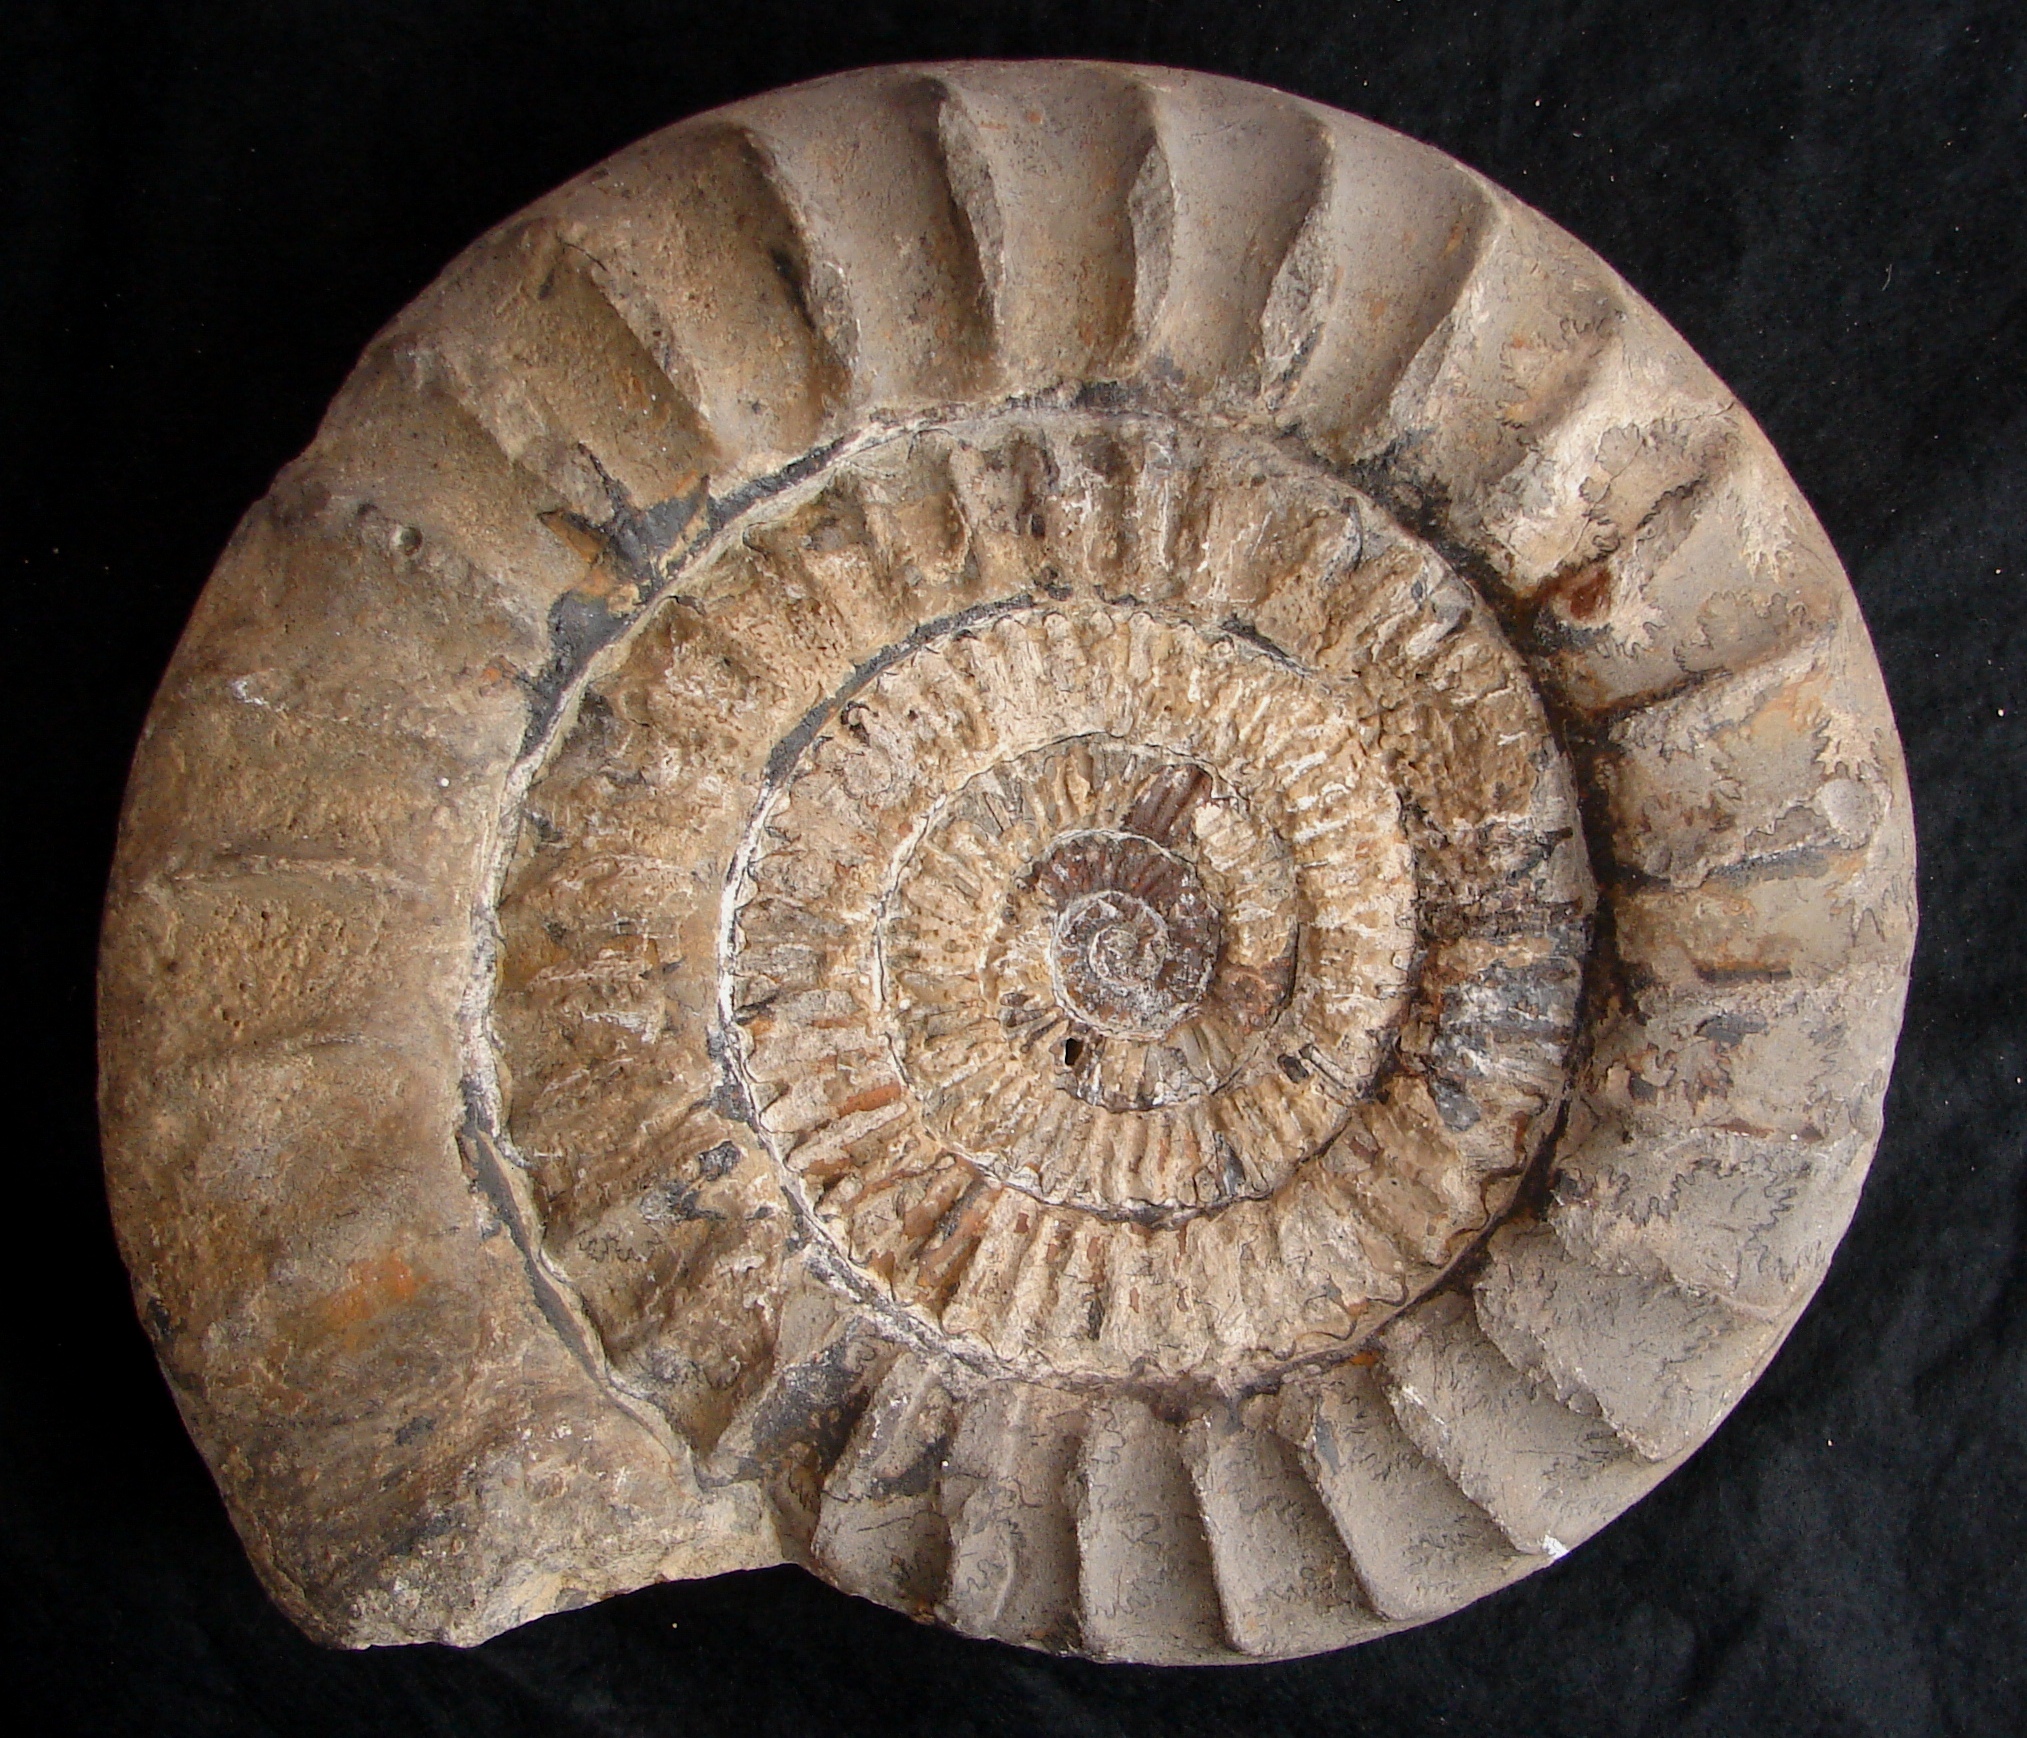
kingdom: Animalia
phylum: Mollusca
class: Cephalopoda
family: Arietitidae
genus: Arietites
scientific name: Arietites
